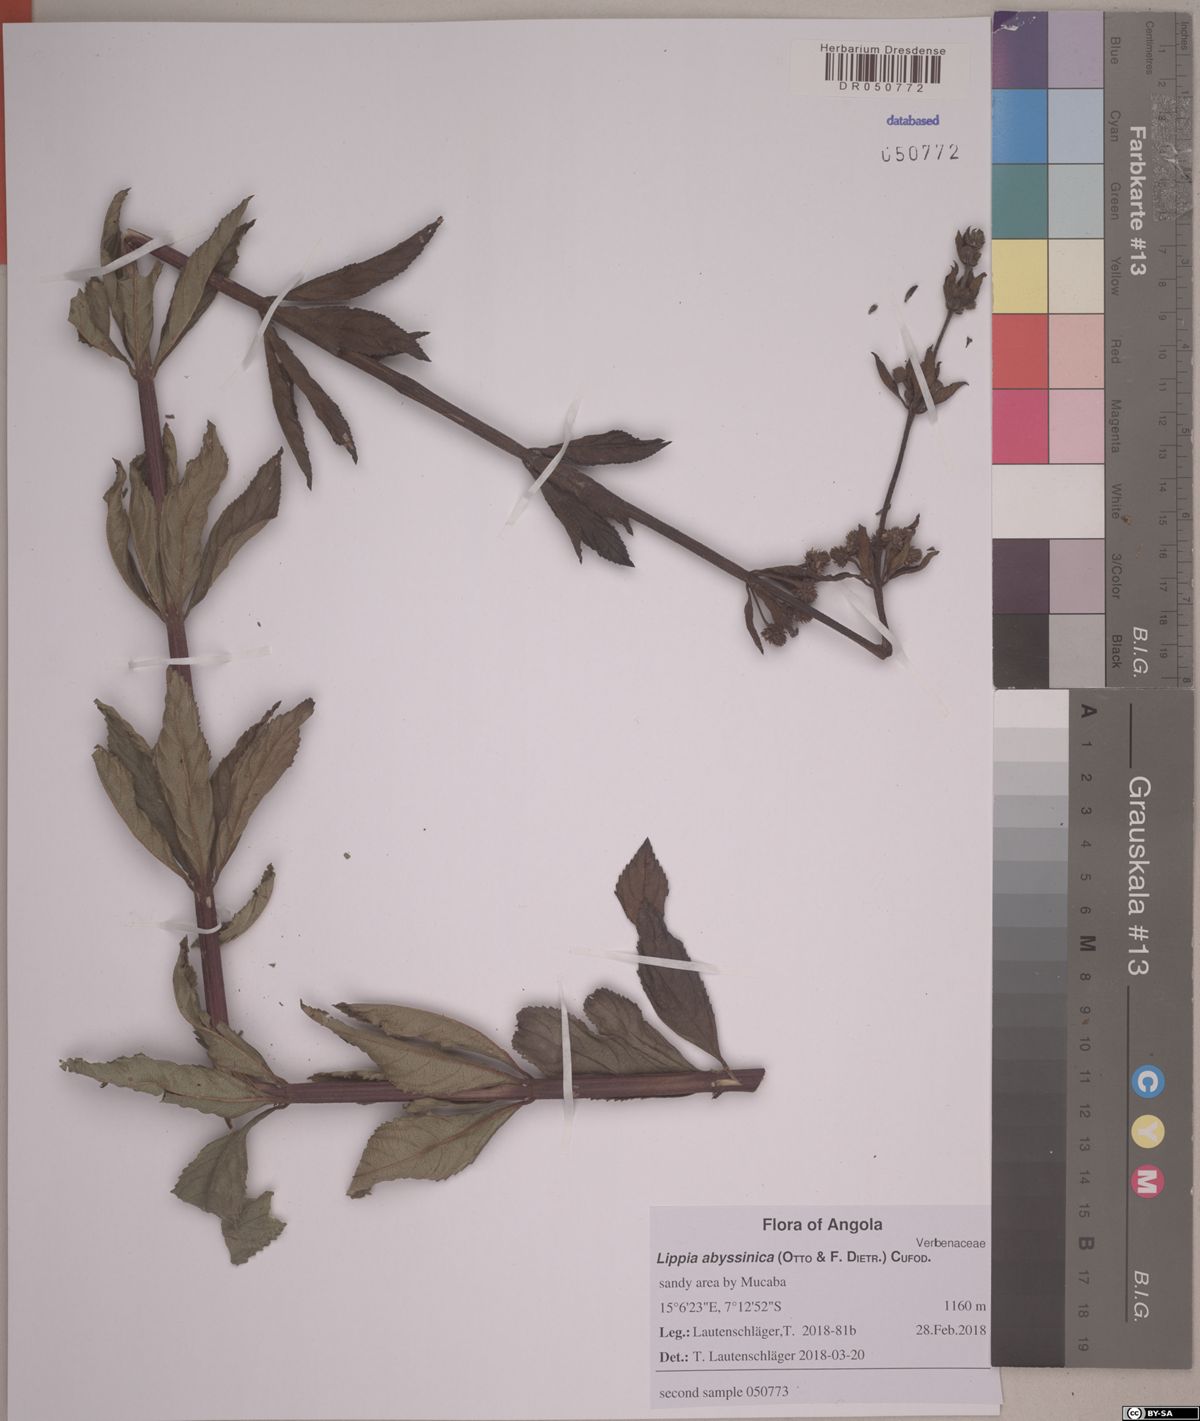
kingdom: Plantae
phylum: Tracheophyta
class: Magnoliopsida
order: Lamiales
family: Verbenaceae
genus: Lippia
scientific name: Lippia abyssinica
